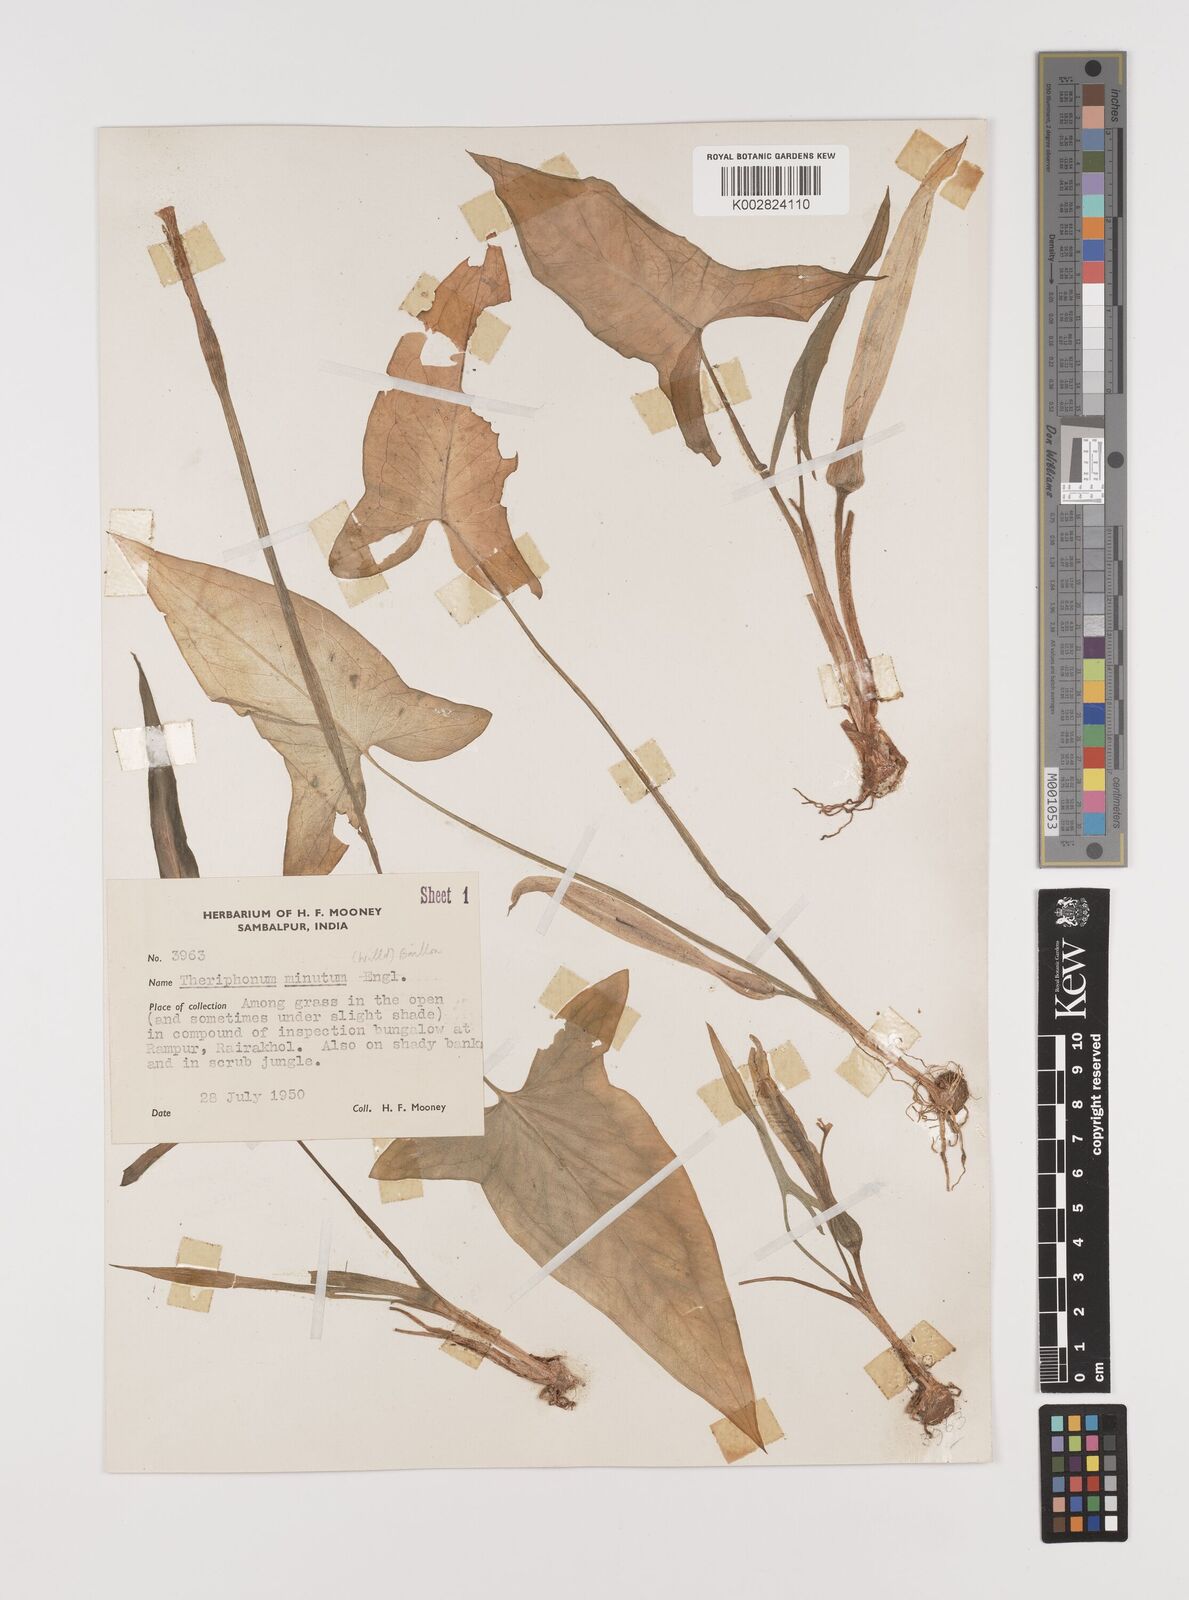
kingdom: Plantae
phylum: Tracheophyta
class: Liliopsida
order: Alismatales
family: Araceae
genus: Theriophonum
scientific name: Theriophonum minutum
